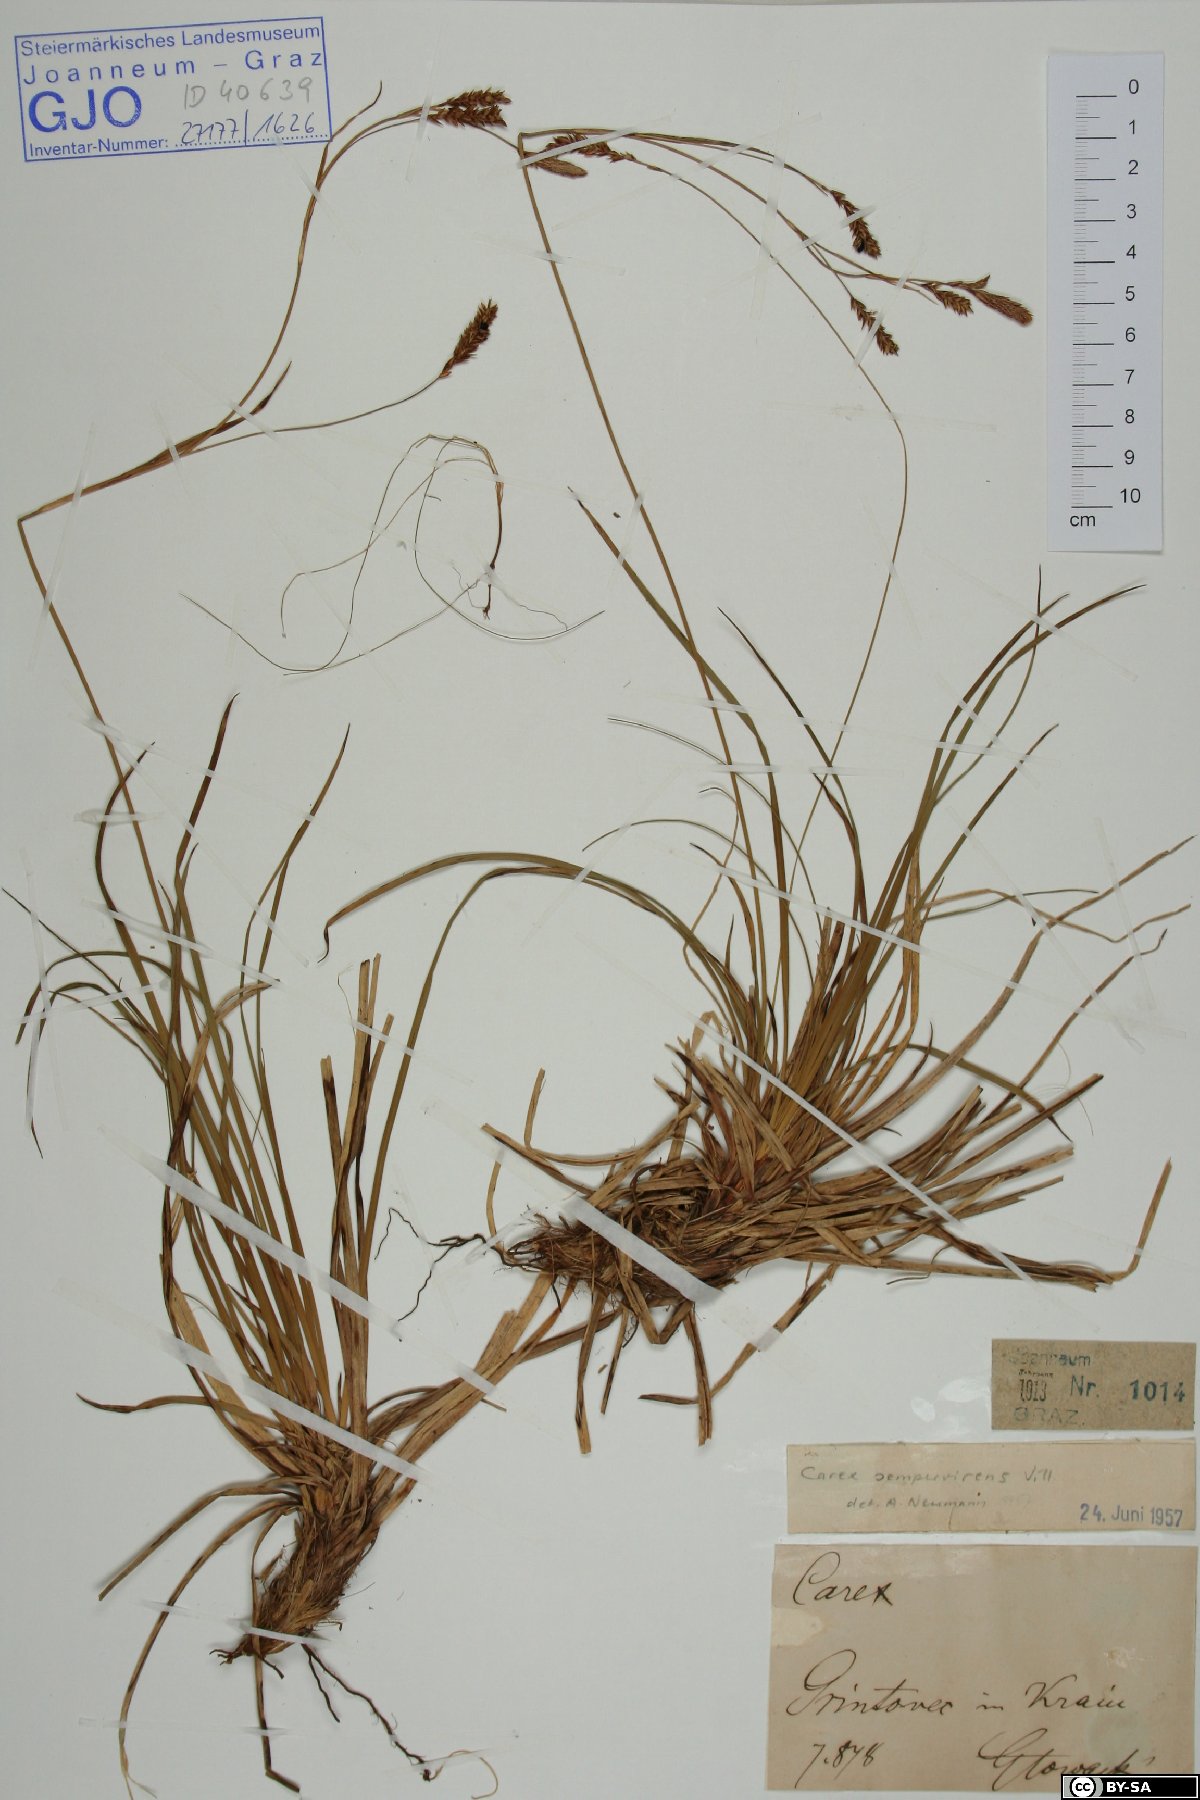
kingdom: Plantae
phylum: Tracheophyta
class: Liliopsida
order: Poales
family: Cyperaceae
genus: Carex
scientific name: Carex sempervirens
